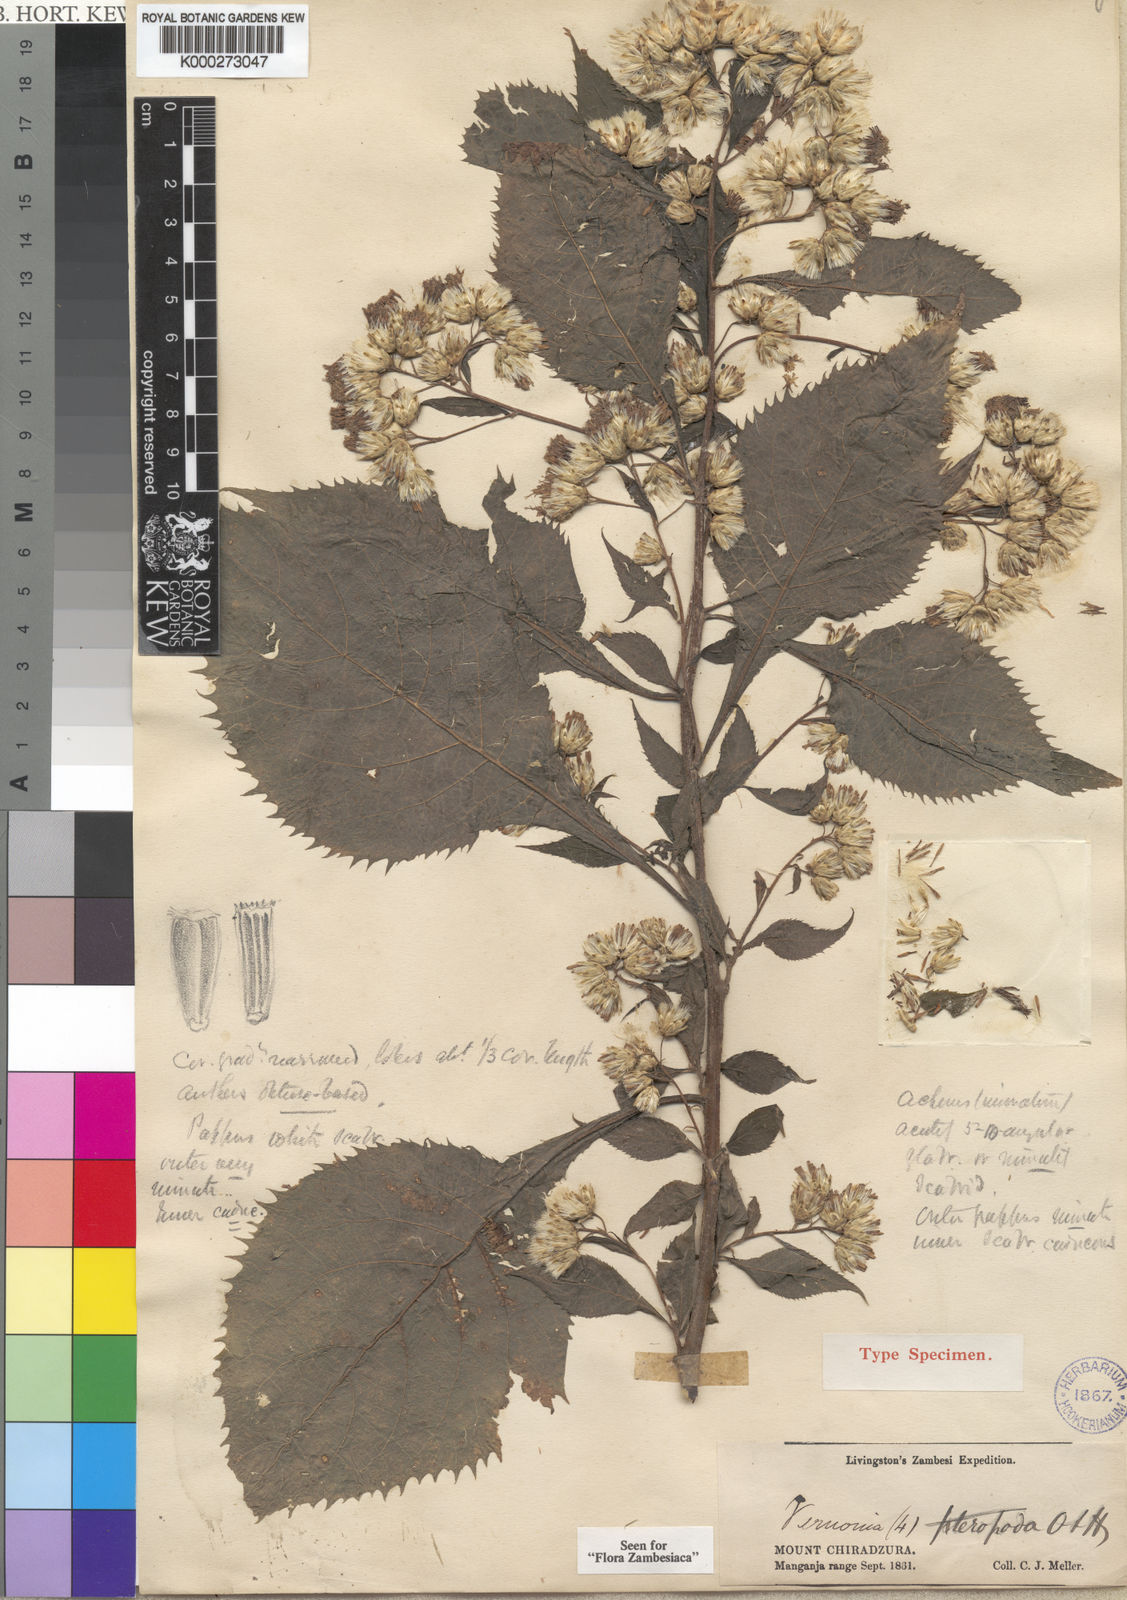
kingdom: Plantae
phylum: Tracheophyta
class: Magnoliopsida
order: Asterales
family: Asteraceae
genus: Ananthura
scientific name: Ananthura pteropoda
